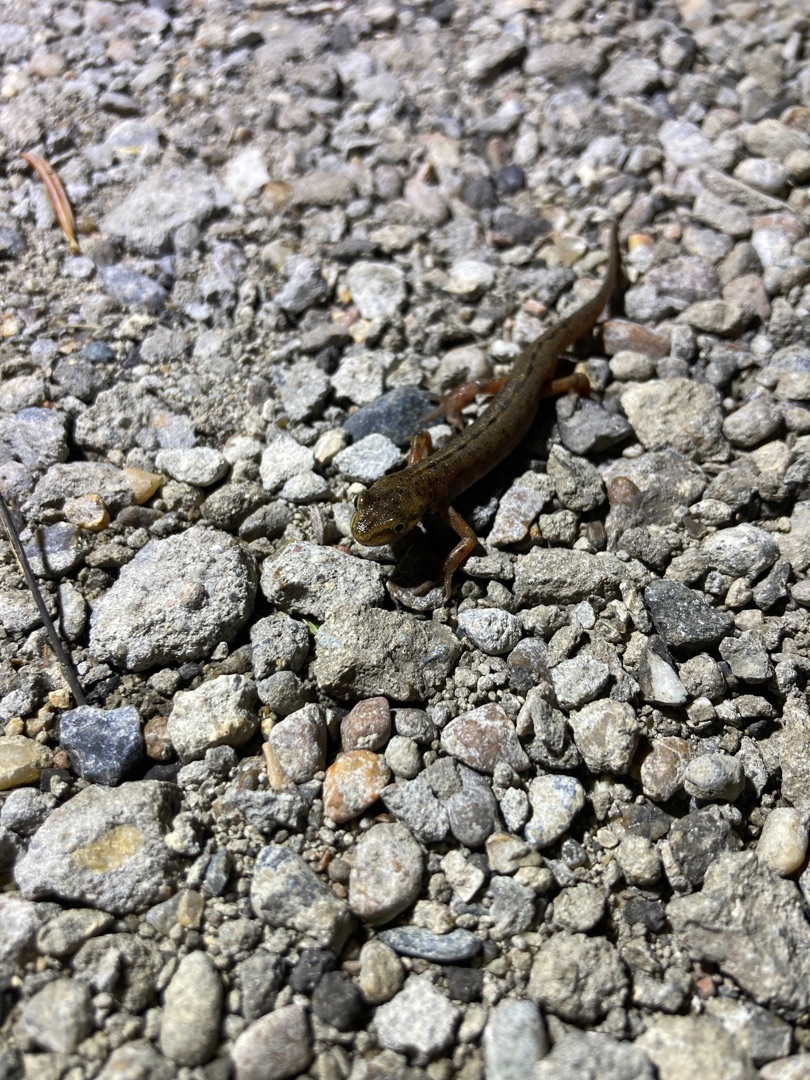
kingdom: Animalia
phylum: Chordata
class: Amphibia
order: Caudata
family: Salamandridae
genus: Lissotriton
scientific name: Lissotriton vulgaris
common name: Lille vandsalamander
